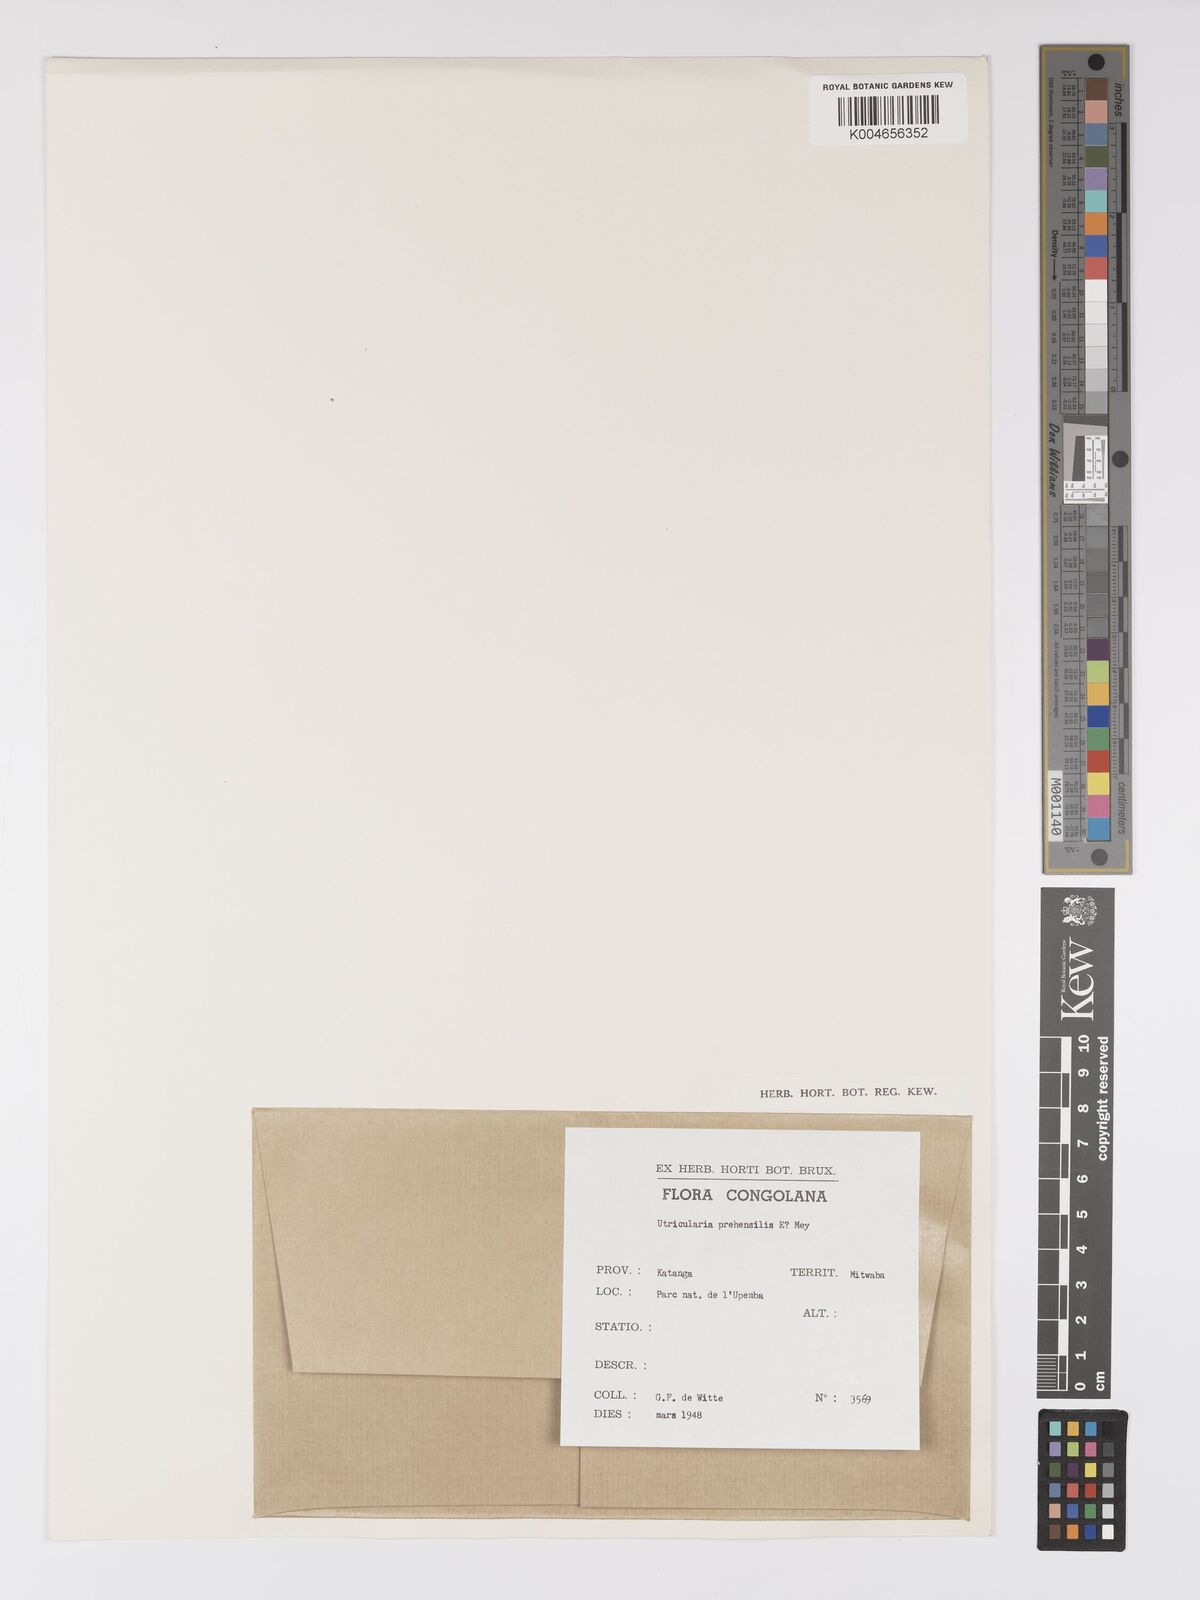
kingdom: Plantae
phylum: Tracheophyta
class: Magnoliopsida
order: Lamiales
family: Lentibulariaceae
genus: Utricularia
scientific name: Utricularia prehensilis
